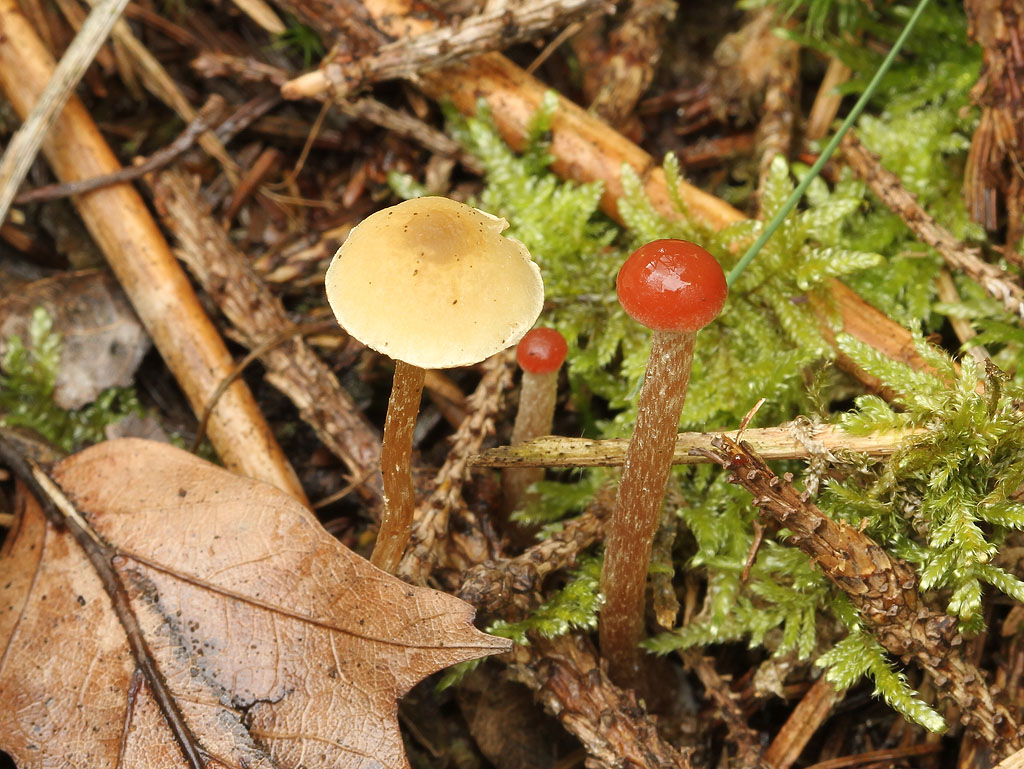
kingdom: Fungi
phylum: Basidiomycota
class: Agaricomycetes
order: Agaricales
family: Strophariaceae
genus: Hypholoma
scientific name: Hypholoma elongatum
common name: slank svovlhat
